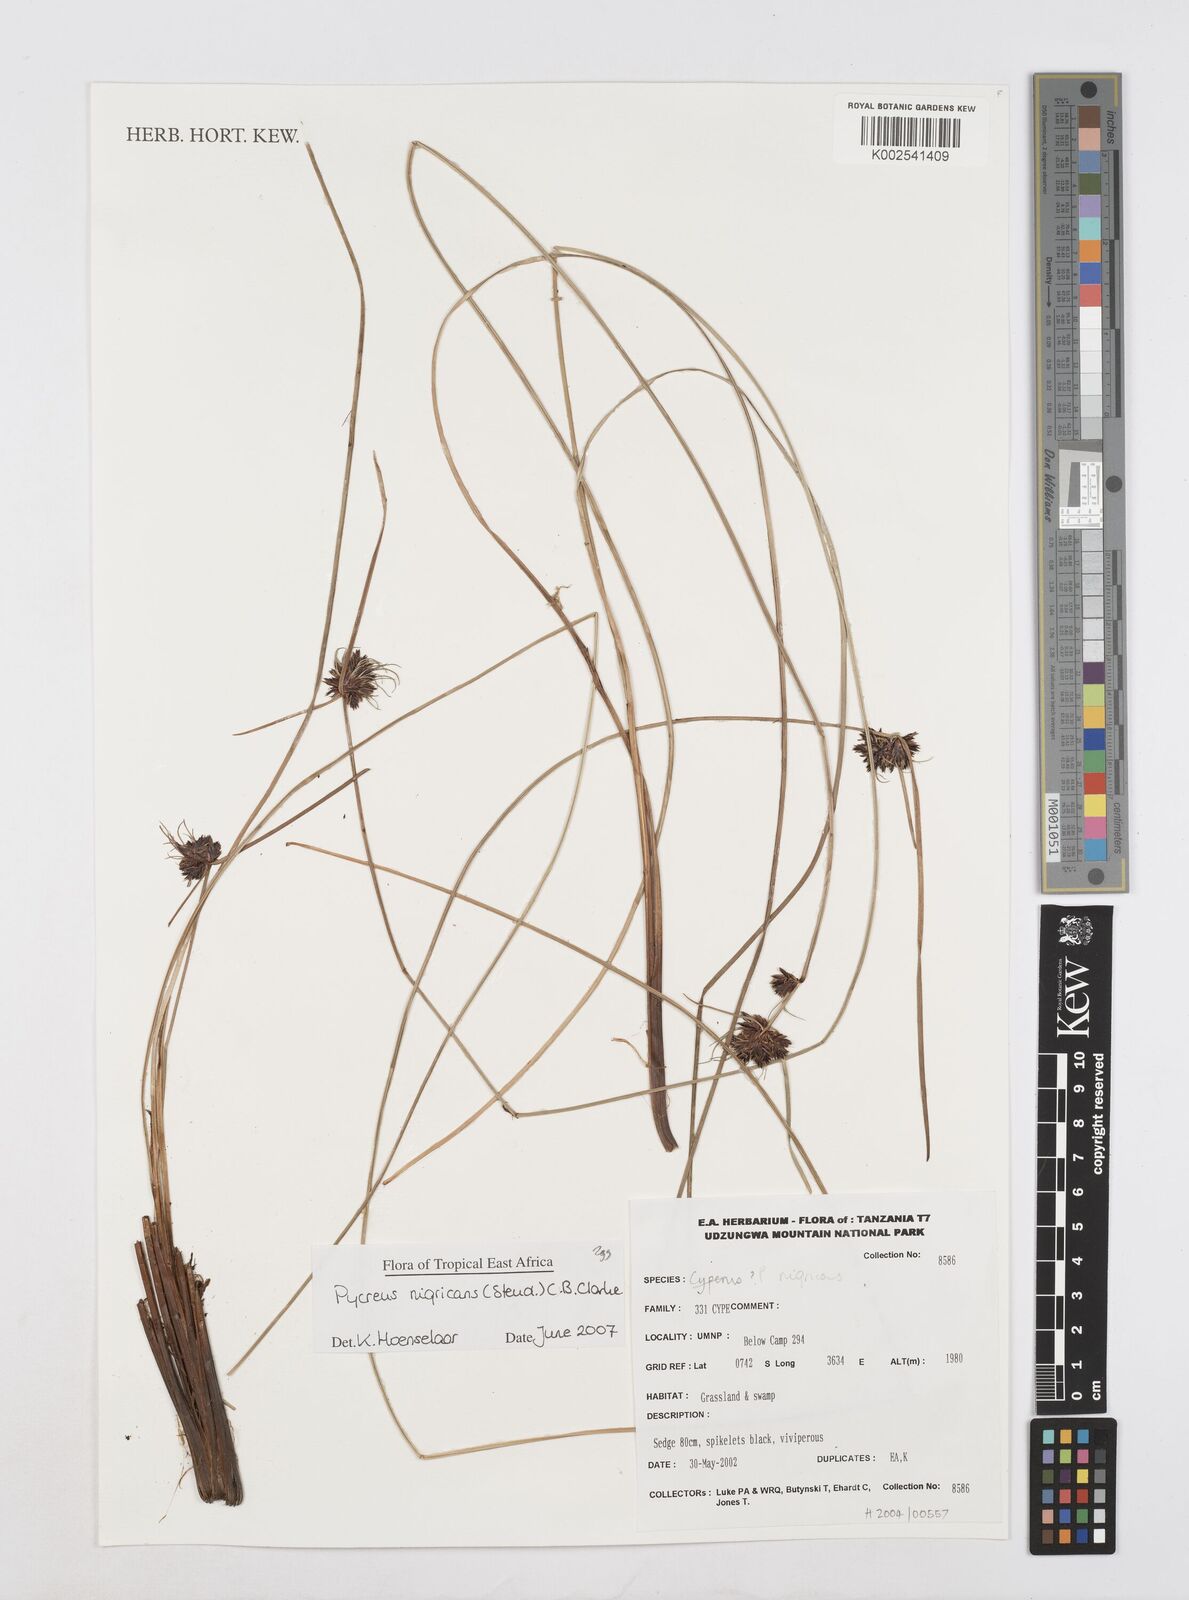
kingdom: Plantae
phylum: Tracheophyta
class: Liliopsida
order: Poales
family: Cyperaceae
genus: Cyperus
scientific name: Cyperus nigricans
